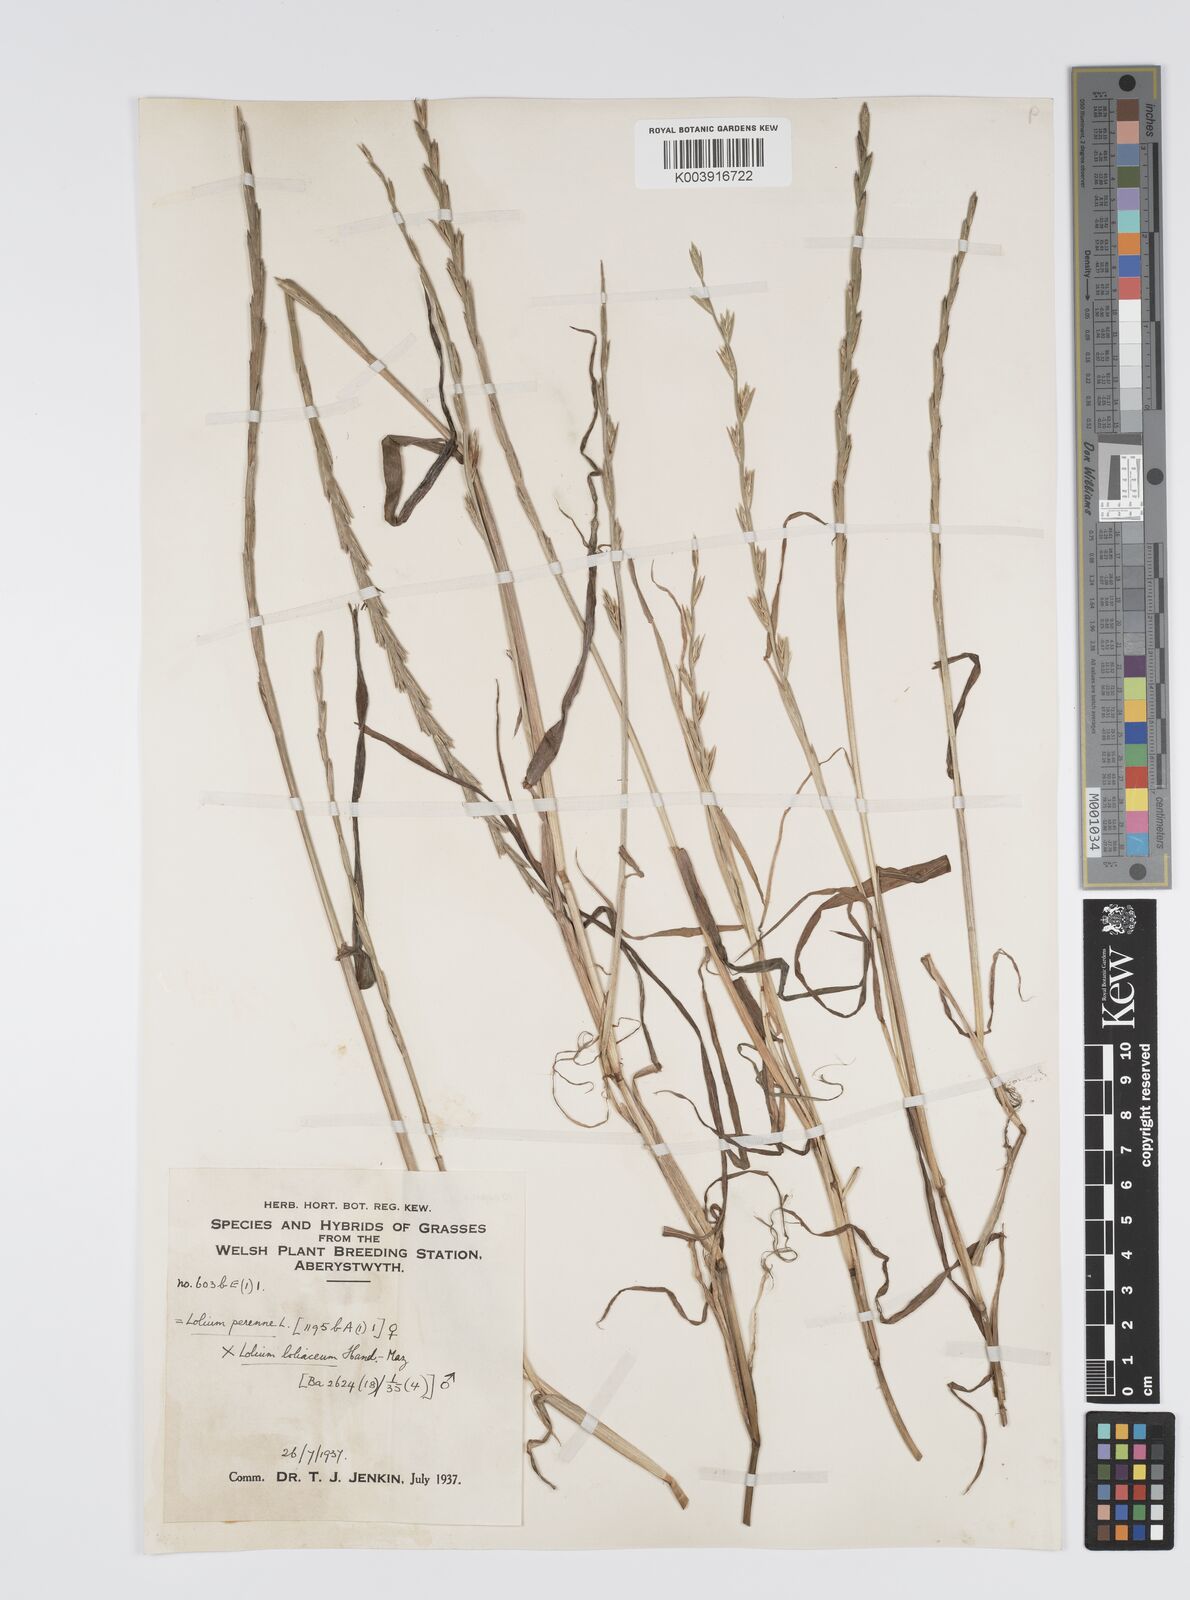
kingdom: Plantae
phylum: Tracheophyta
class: Liliopsida
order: Poales
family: Poaceae
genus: Lolium
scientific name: Lolium perenne
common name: Perennial ryegrass
